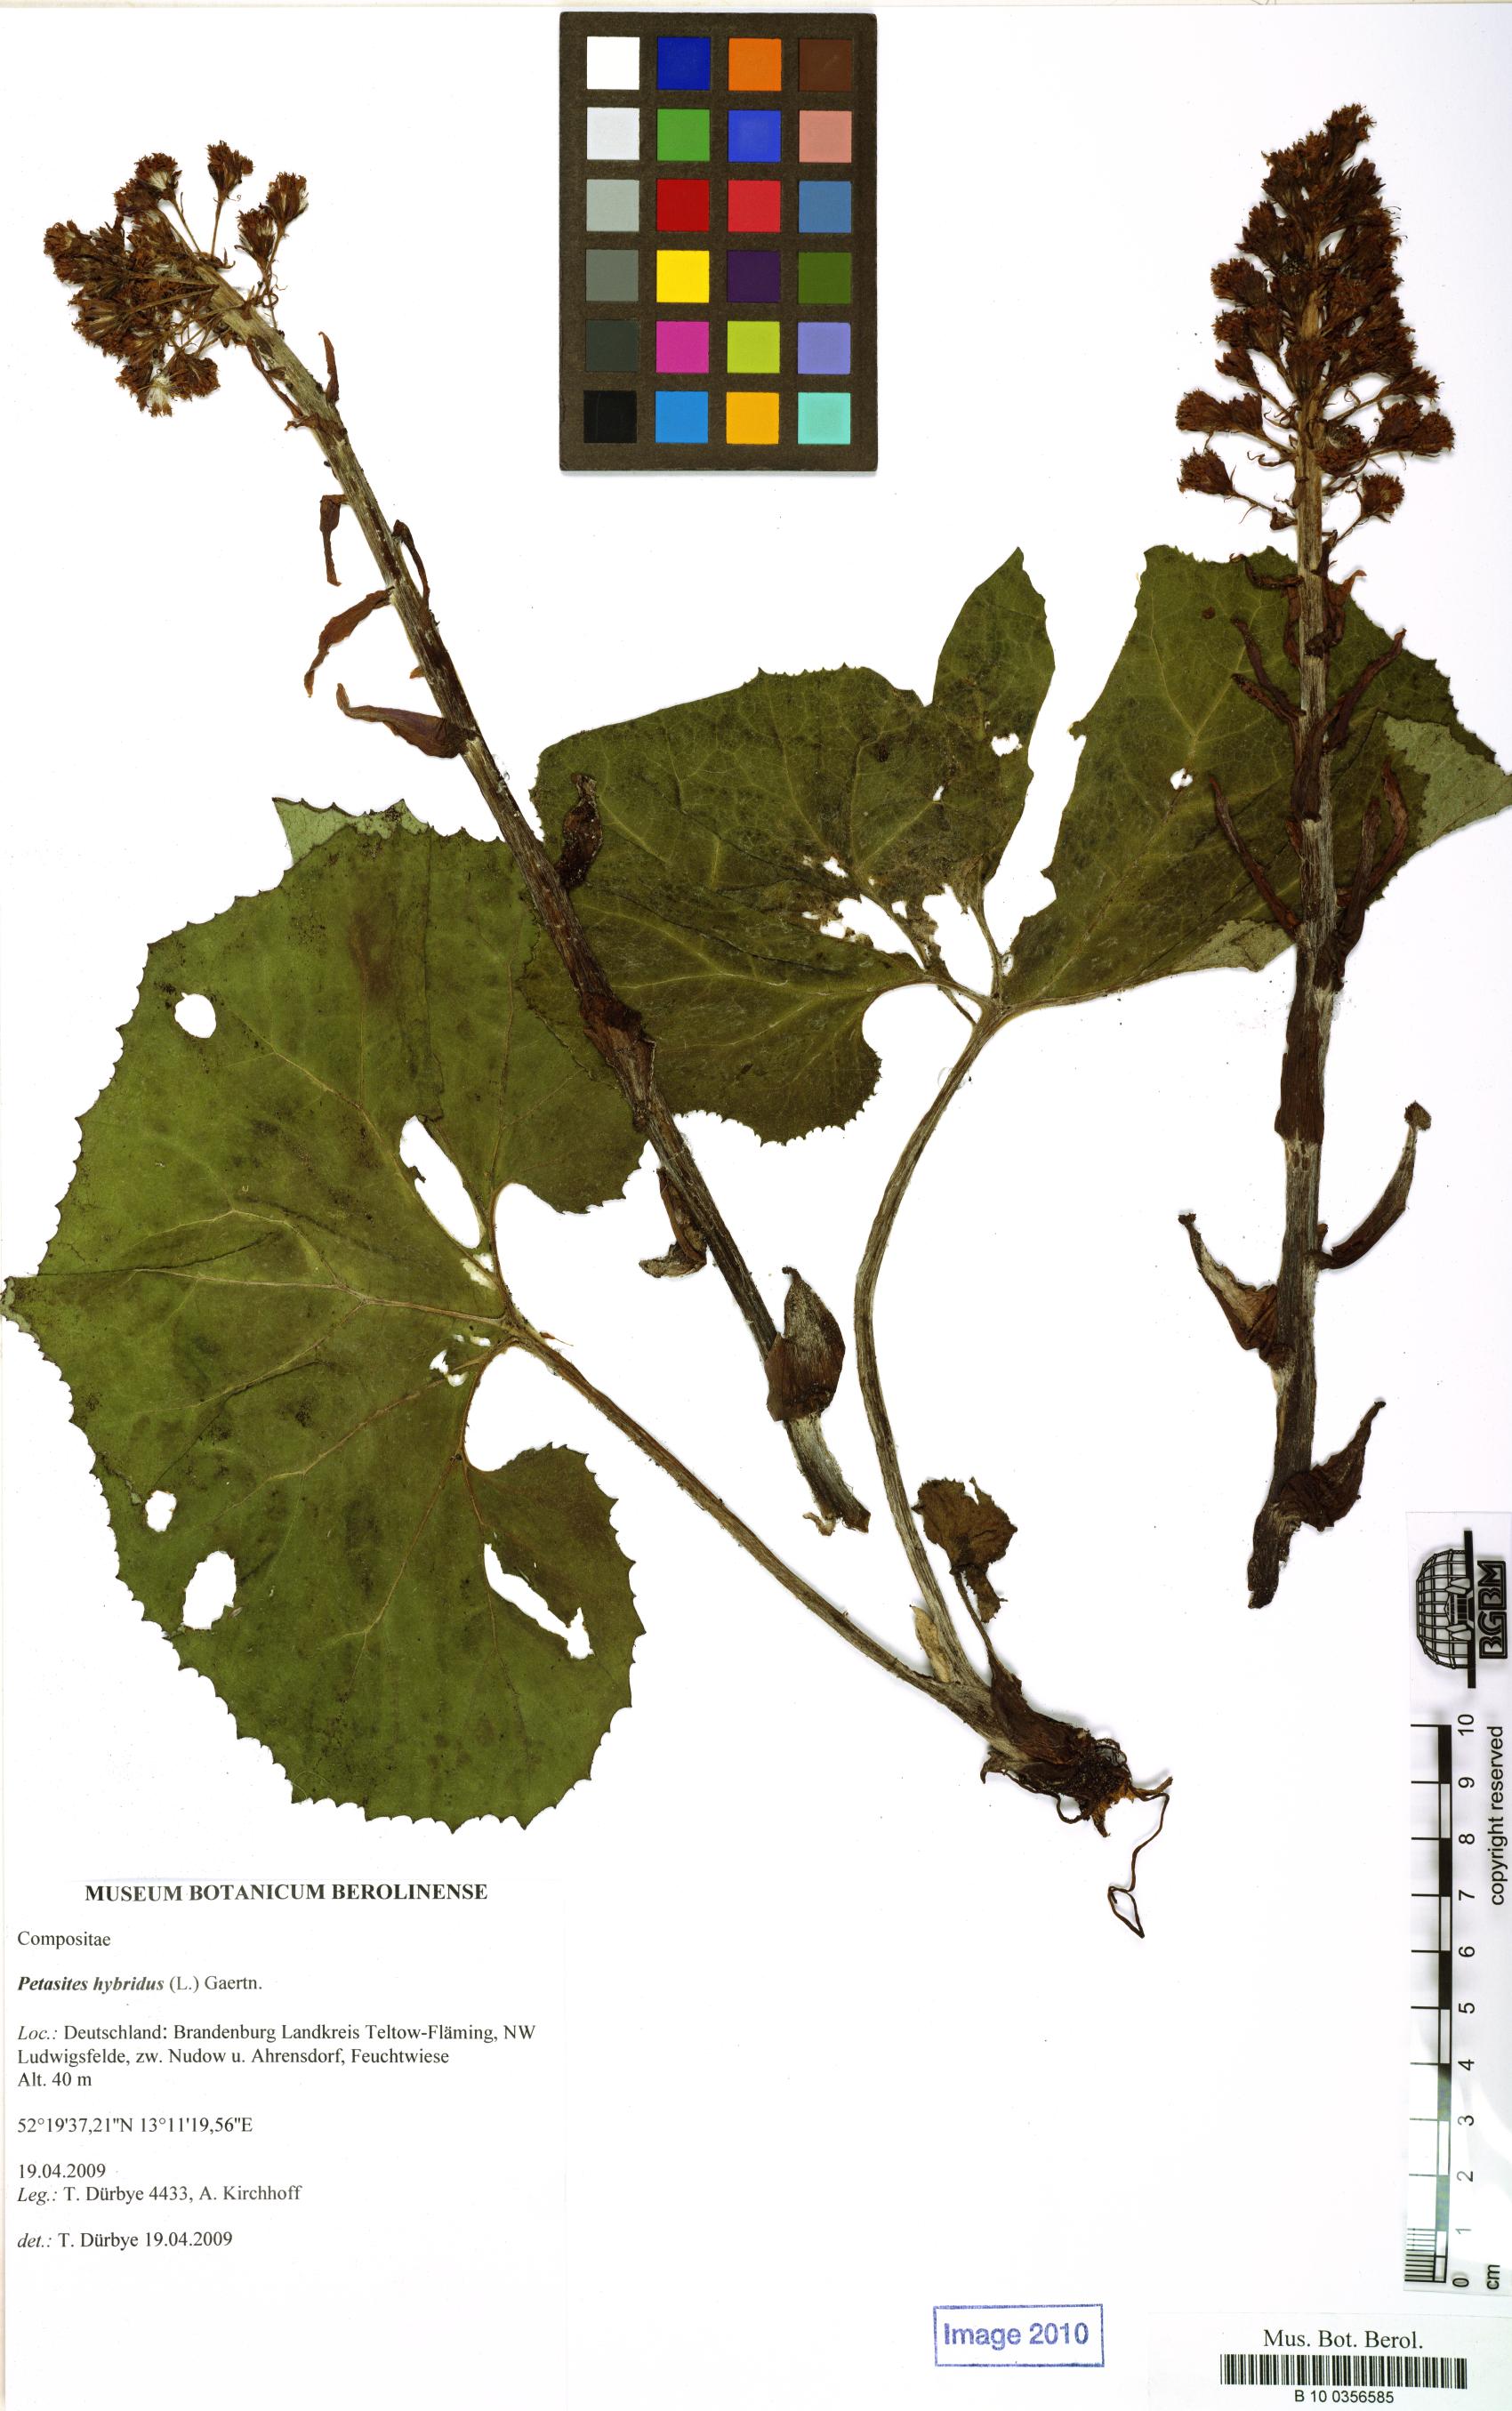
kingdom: Plantae
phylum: Tracheophyta
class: Magnoliopsida
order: Asterales
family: Asteraceae
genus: Petasites
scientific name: Petasites hybridus
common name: Butterbur
